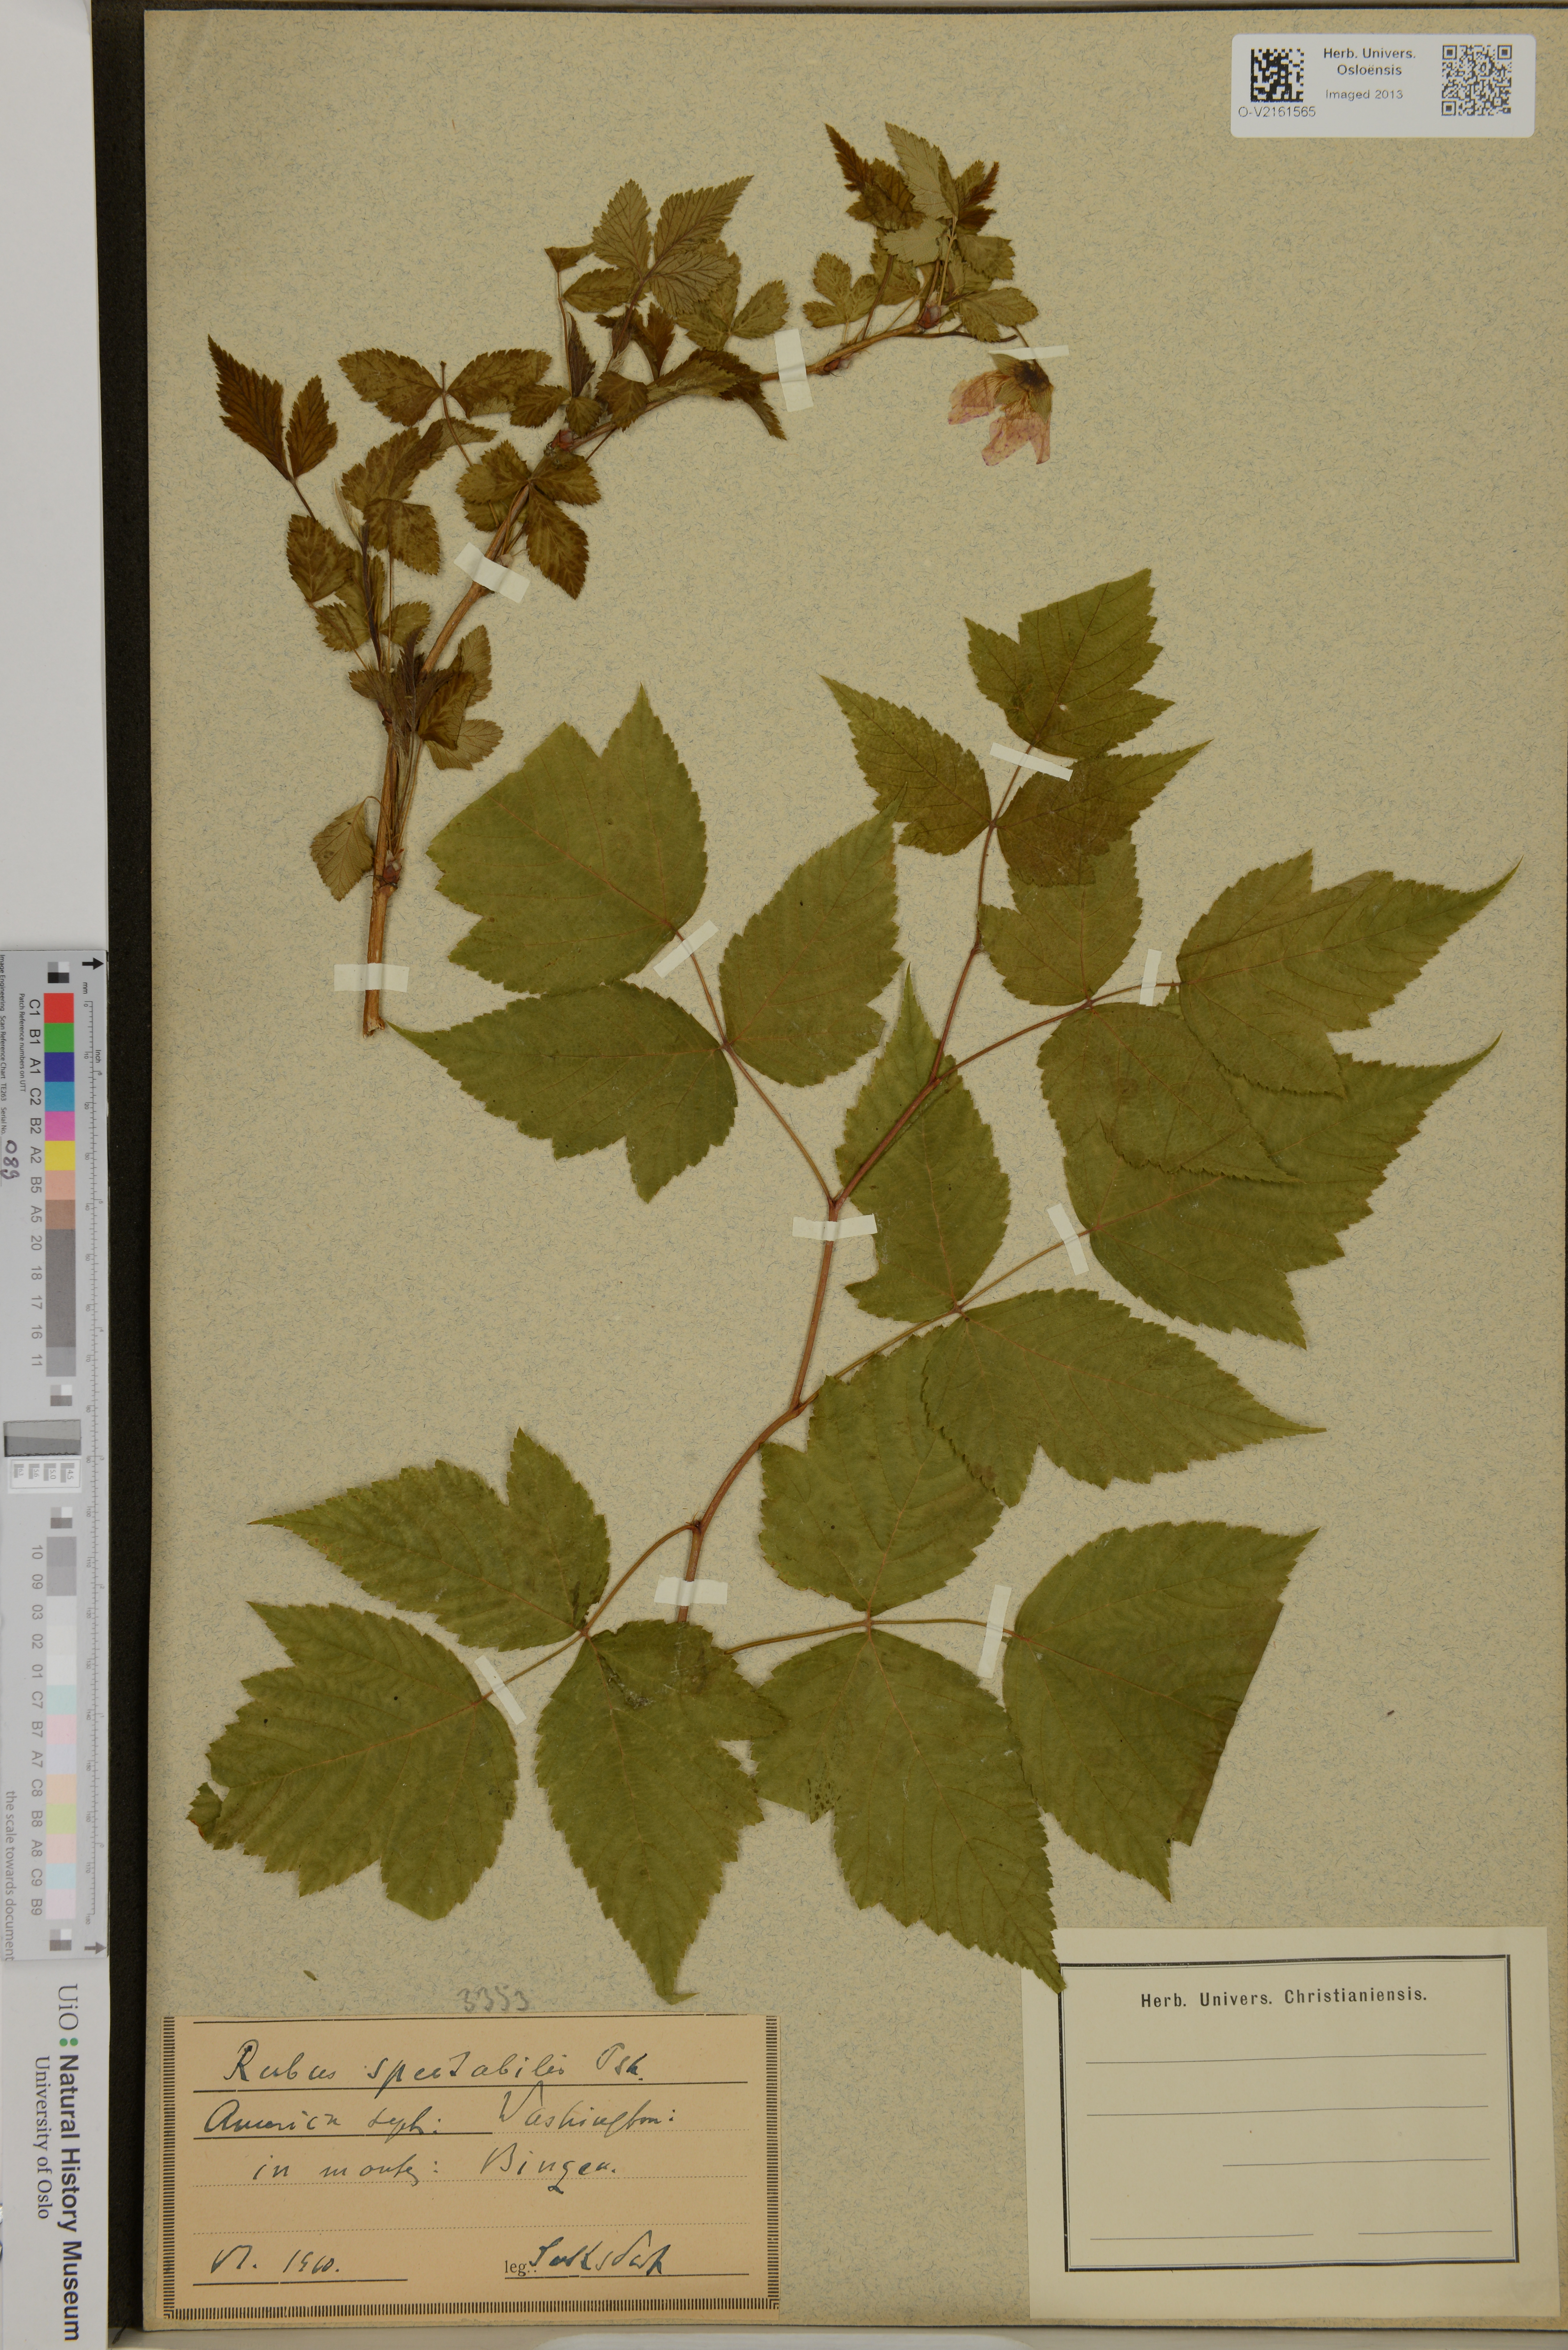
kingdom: Plantae
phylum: Tracheophyta
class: Magnoliopsida
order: Rosales
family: Rosaceae
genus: Rubus
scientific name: Rubus spectabilis
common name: Salmonberry
